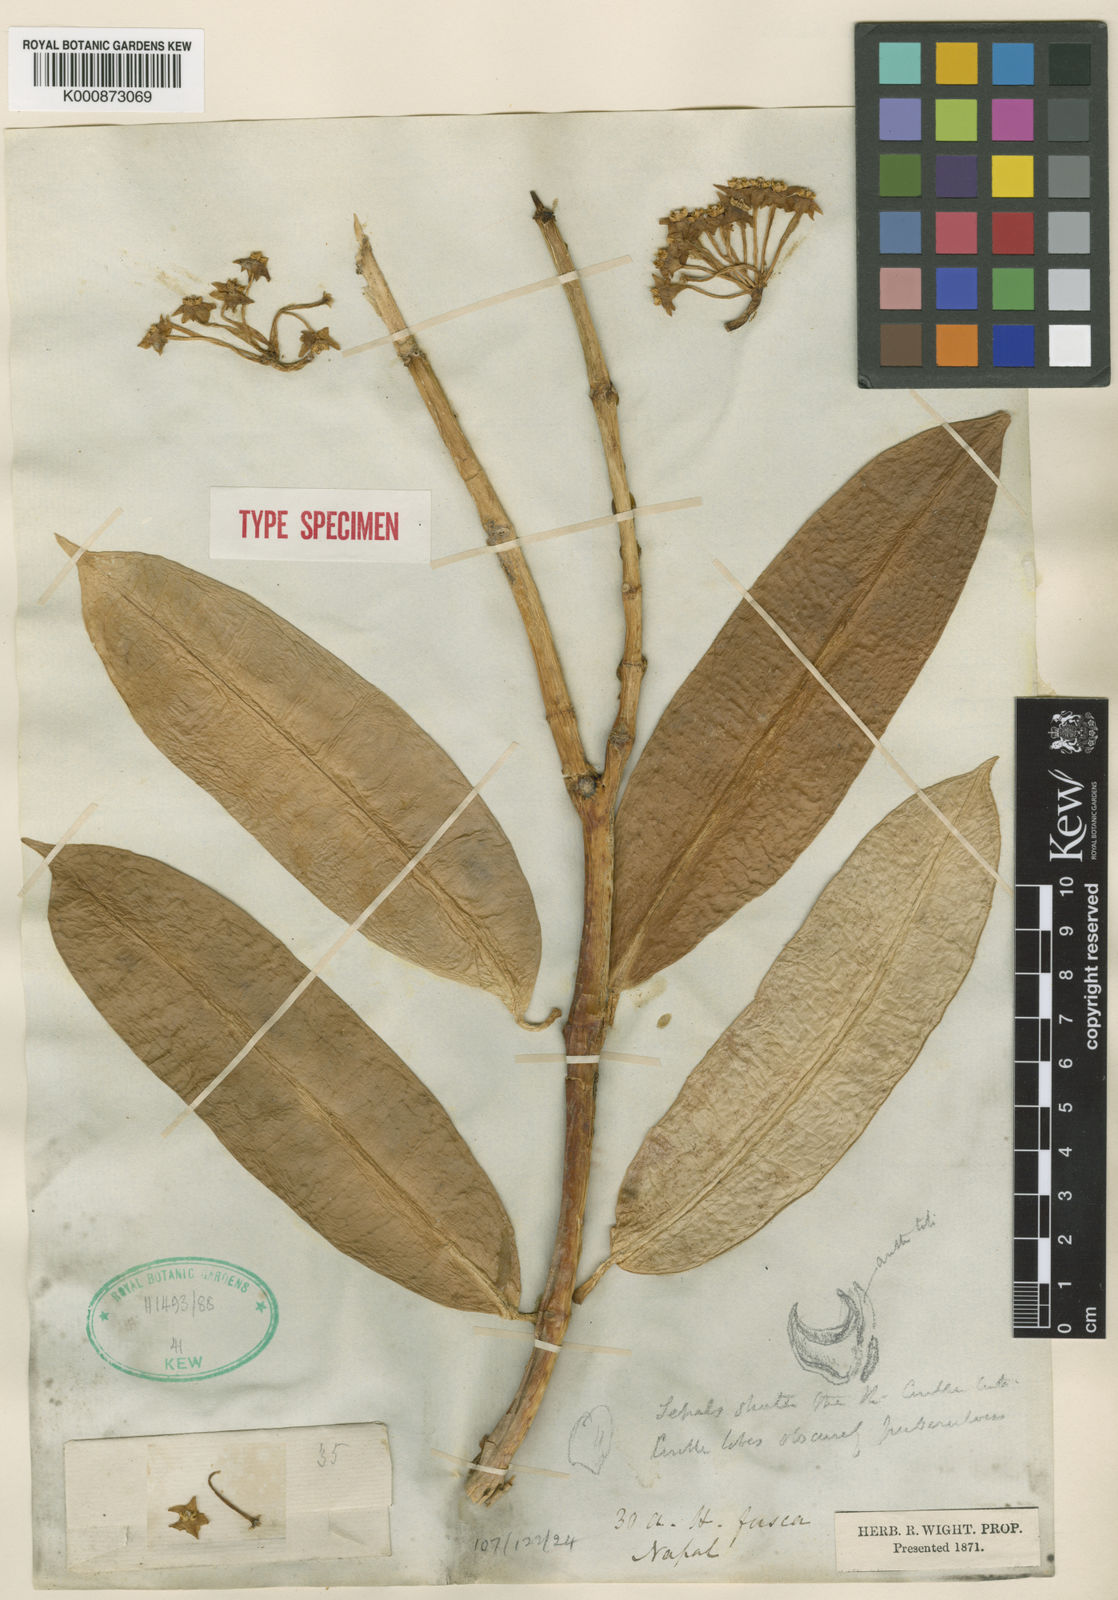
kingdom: Plantae
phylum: Tracheophyta
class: Magnoliopsida
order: Gentianales
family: Apocynaceae
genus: Hoya
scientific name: Hoya fusca
